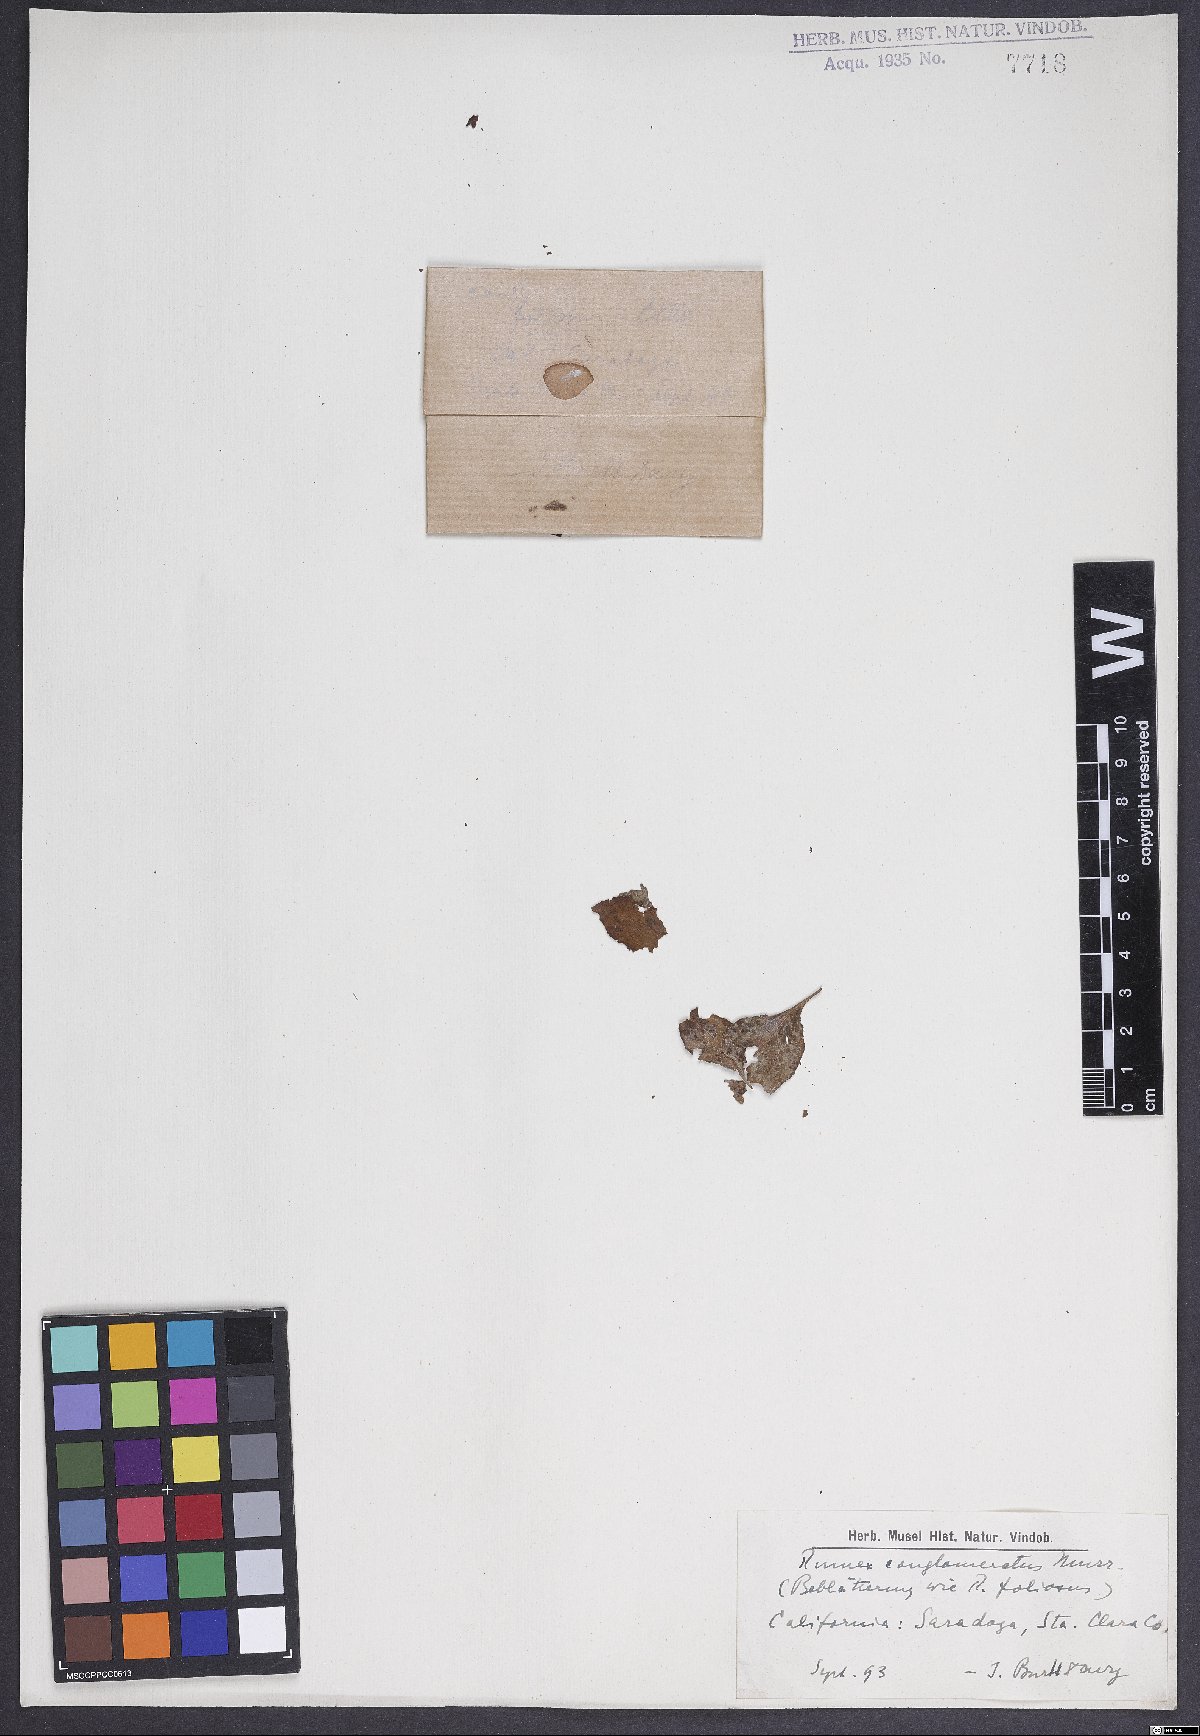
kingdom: Plantae
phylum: Tracheophyta
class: Magnoliopsida
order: Caryophyllales
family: Polygonaceae
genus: Rumex
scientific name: Rumex conglomeratus
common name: Clustered dock
